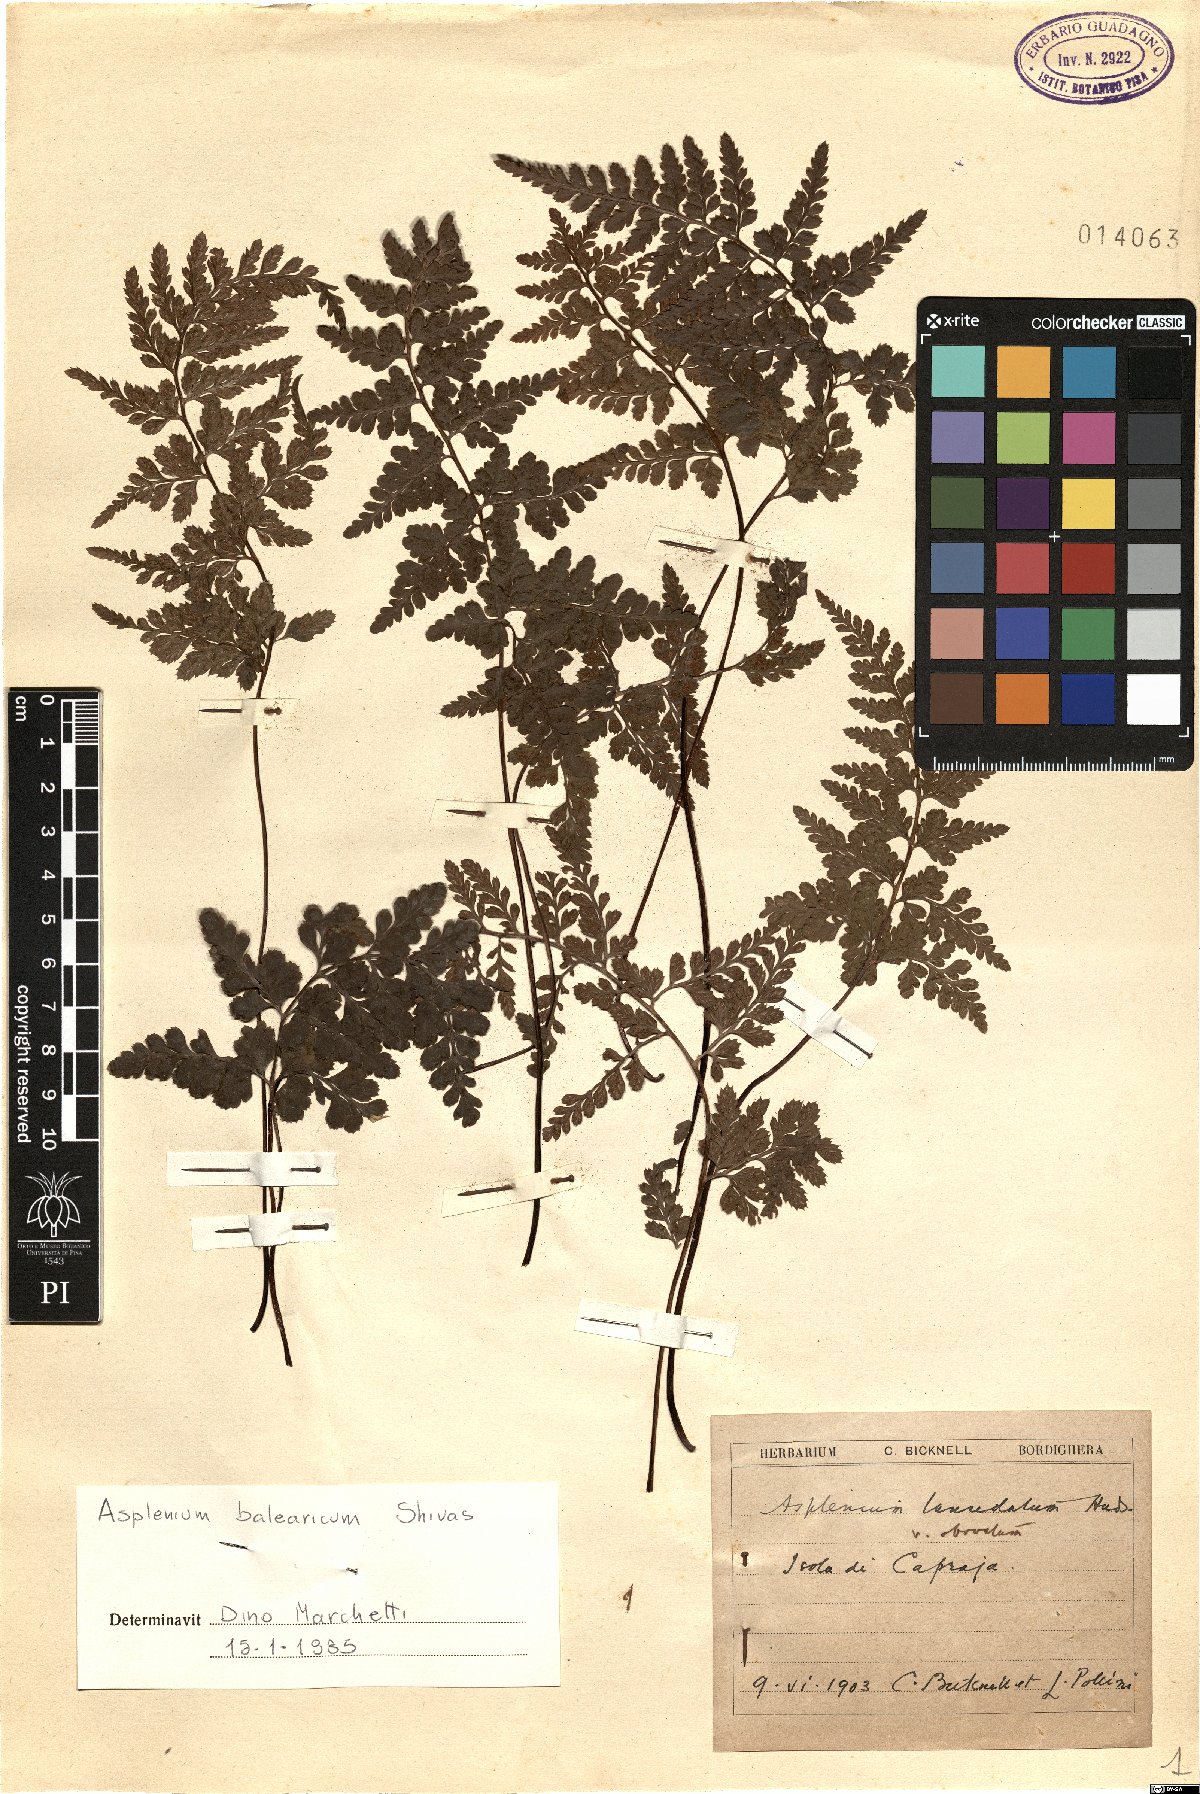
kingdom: Plantae
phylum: Tracheophyta
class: Polypodiopsida
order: Polypodiales
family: Aspleniaceae
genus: Asplenium
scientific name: Asplenium balearicum
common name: Balearean spleenwort
